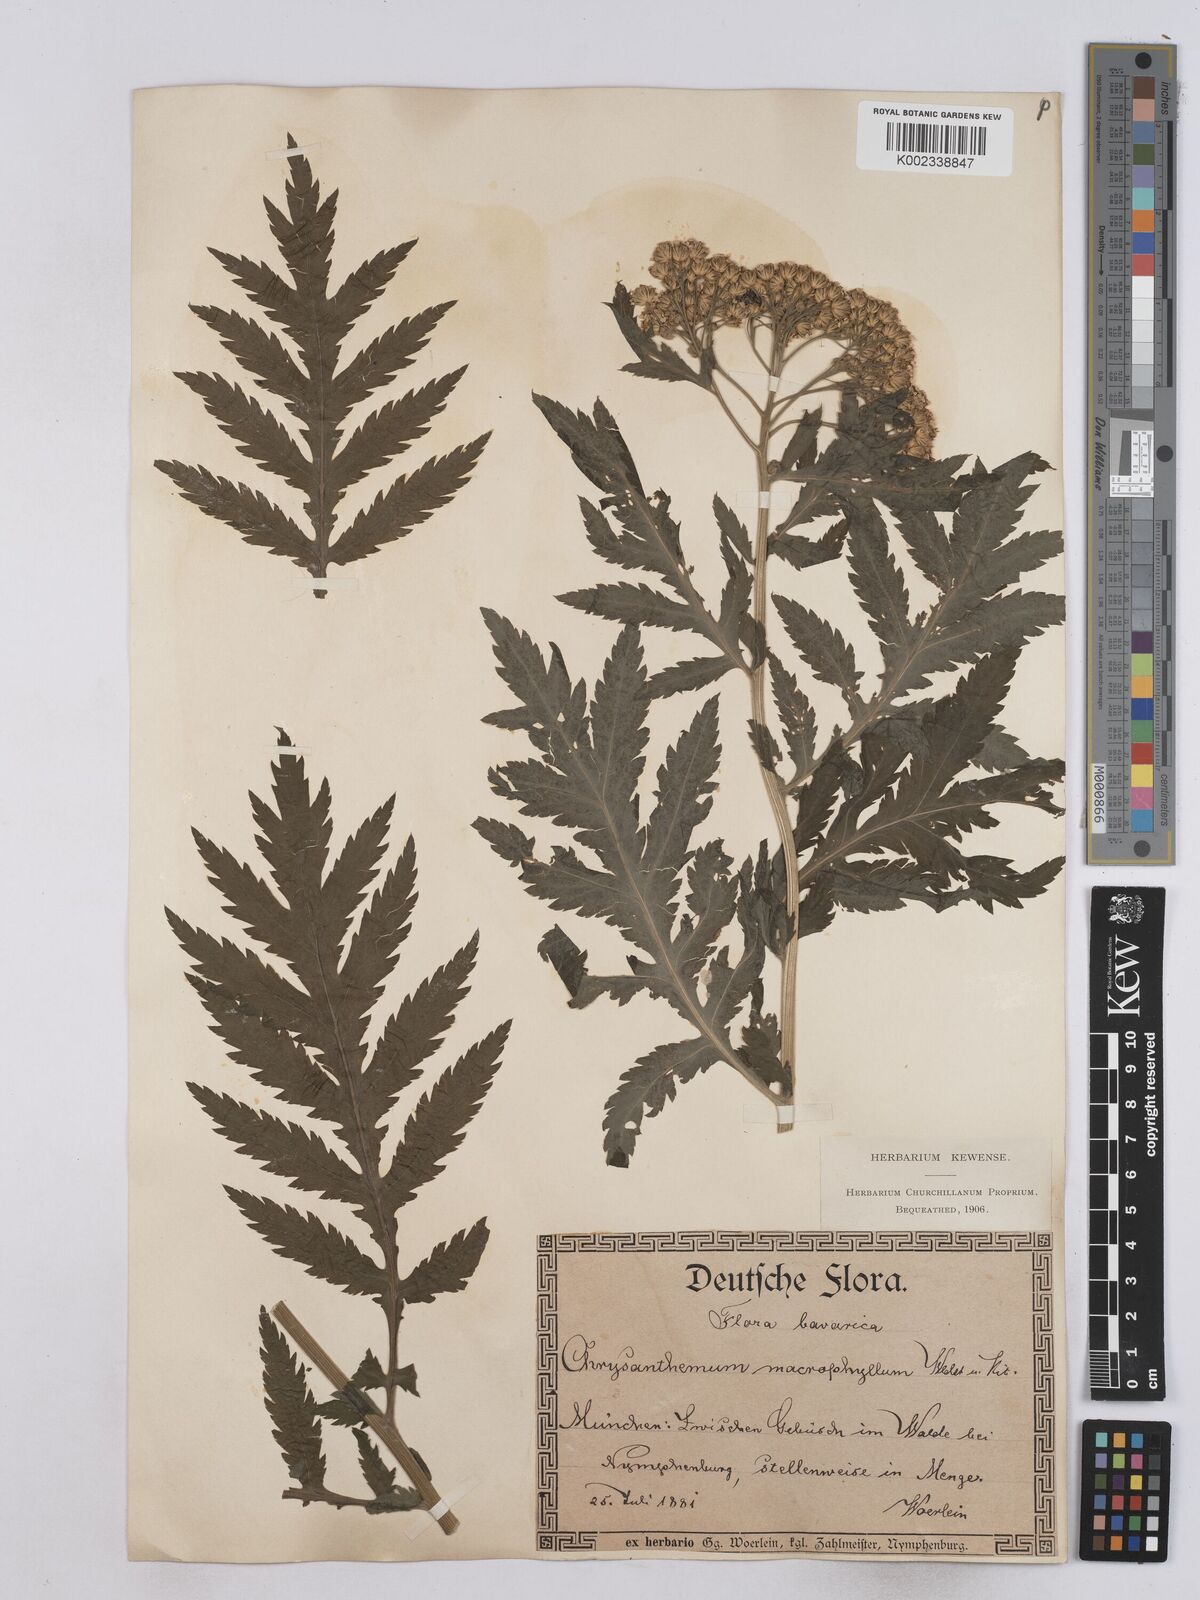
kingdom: Plantae
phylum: Tracheophyta
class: Magnoliopsida
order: Asterales
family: Asteraceae
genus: Tanacetum
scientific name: Tanacetum macrophyllum
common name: Rayed tansy
